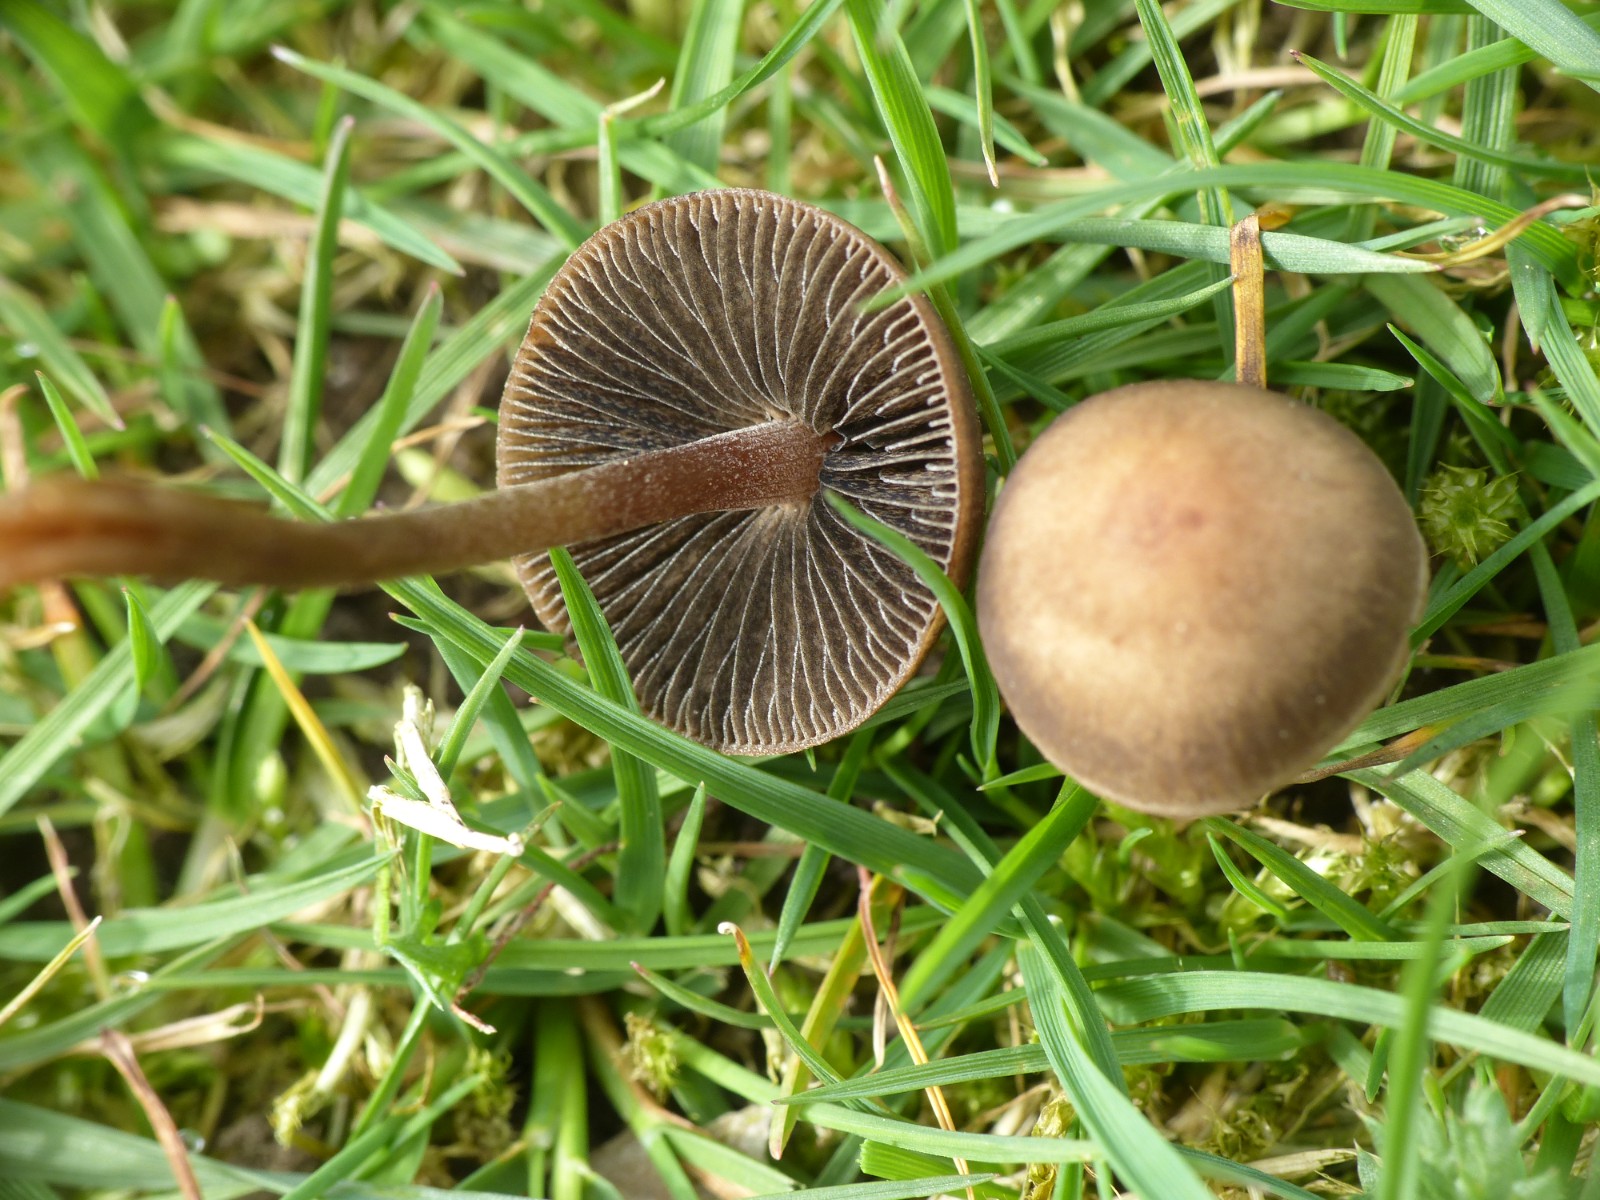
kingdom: Fungi
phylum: Basidiomycota
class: Agaricomycetes
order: Agaricales
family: Bolbitiaceae
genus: Panaeolus
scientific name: Panaeolus fimicola
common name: tidlig glanshat
